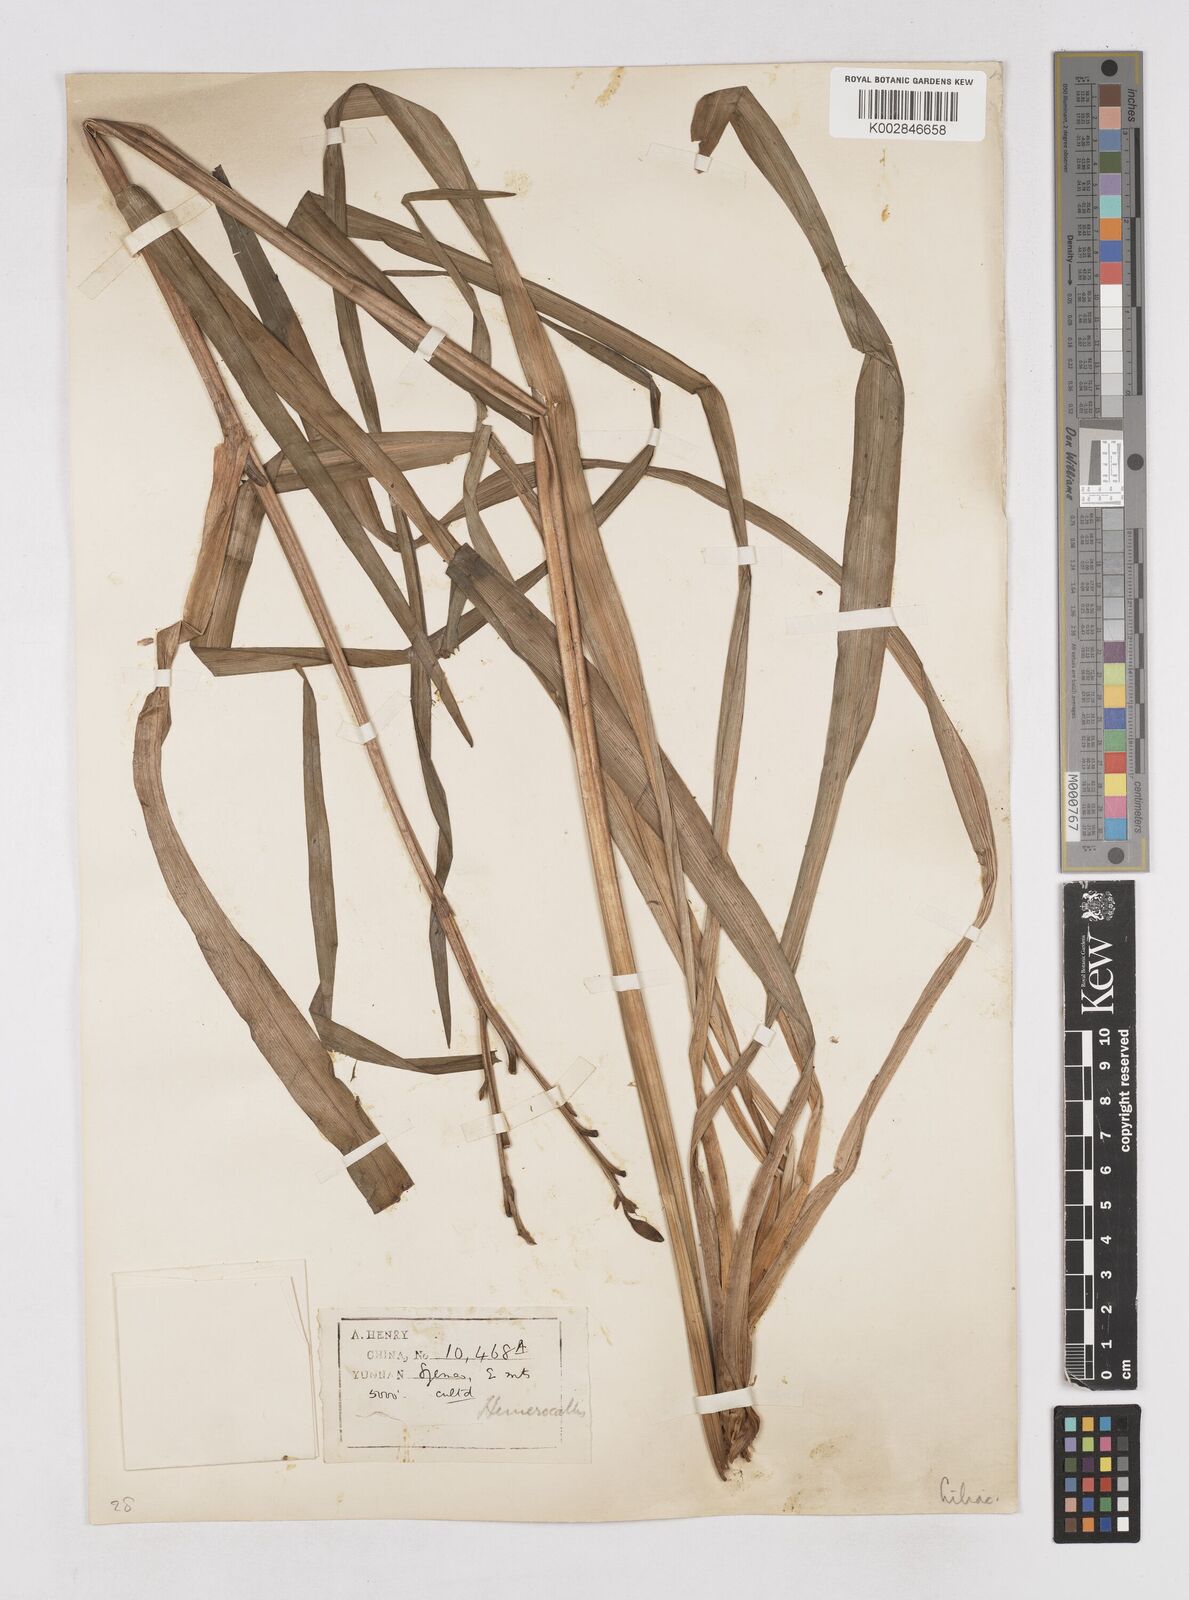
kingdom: Plantae
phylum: Tracheophyta
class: Liliopsida
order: Asparagales
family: Asphodelaceae
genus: Hemerocallis
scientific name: Hemerocallis fulva
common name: Orange day-lily
